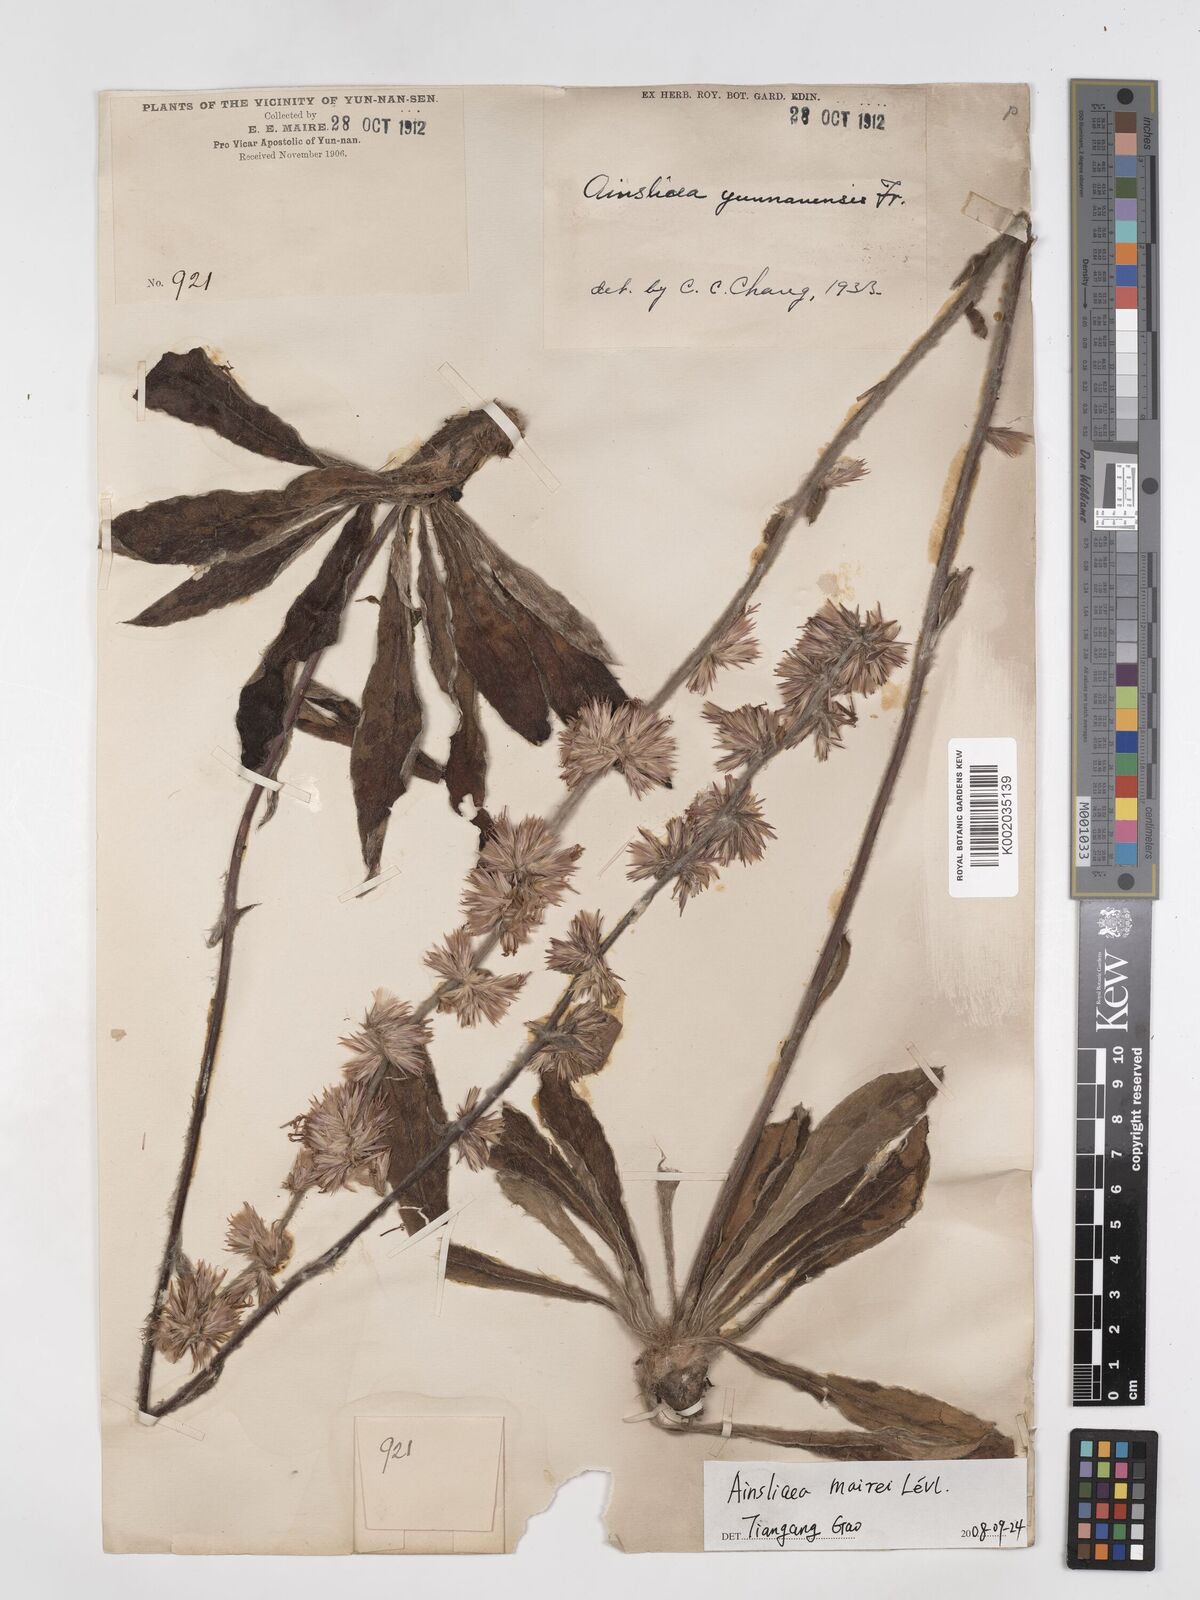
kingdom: Plantae
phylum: Tracheophyta
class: Magnoliopsida
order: Asterales
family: Asteraceae
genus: Ainsliaea
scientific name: Ainsliaea mairei
